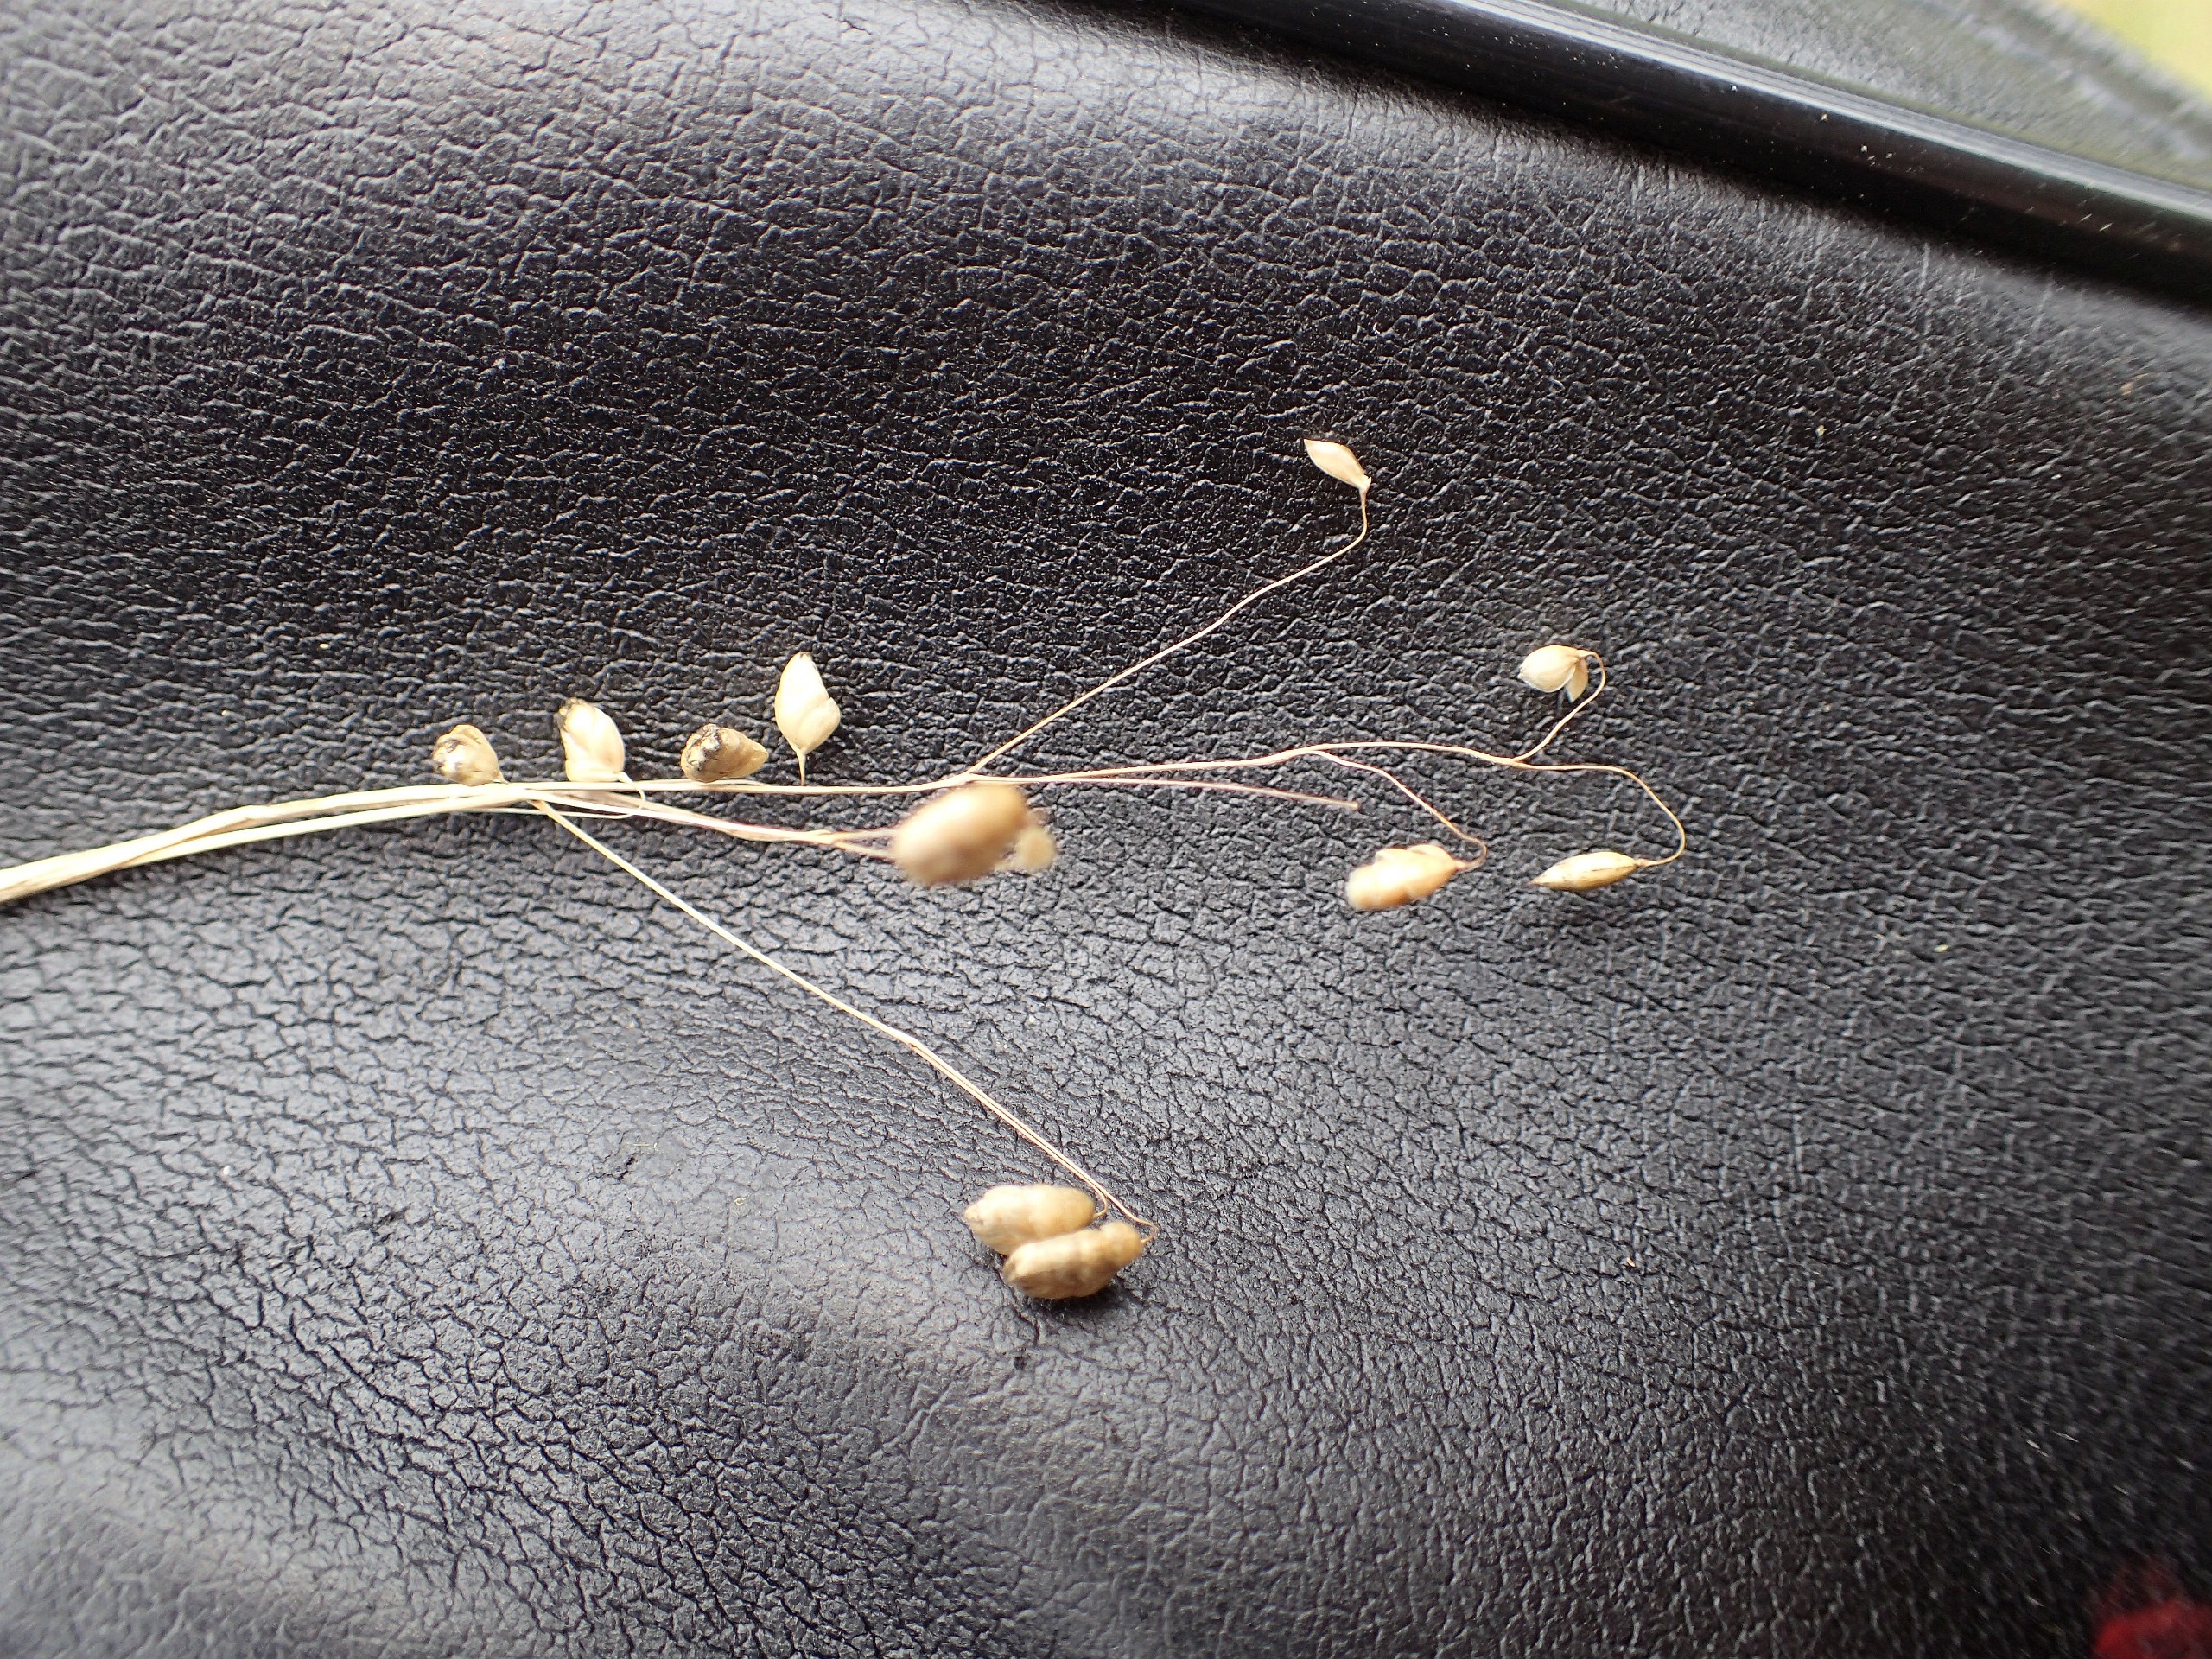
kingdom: Plantae
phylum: Tracheophyta
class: Liliopsida
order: Poales
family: Poaceae
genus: Briza
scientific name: Briza media
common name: Hjertegræs
